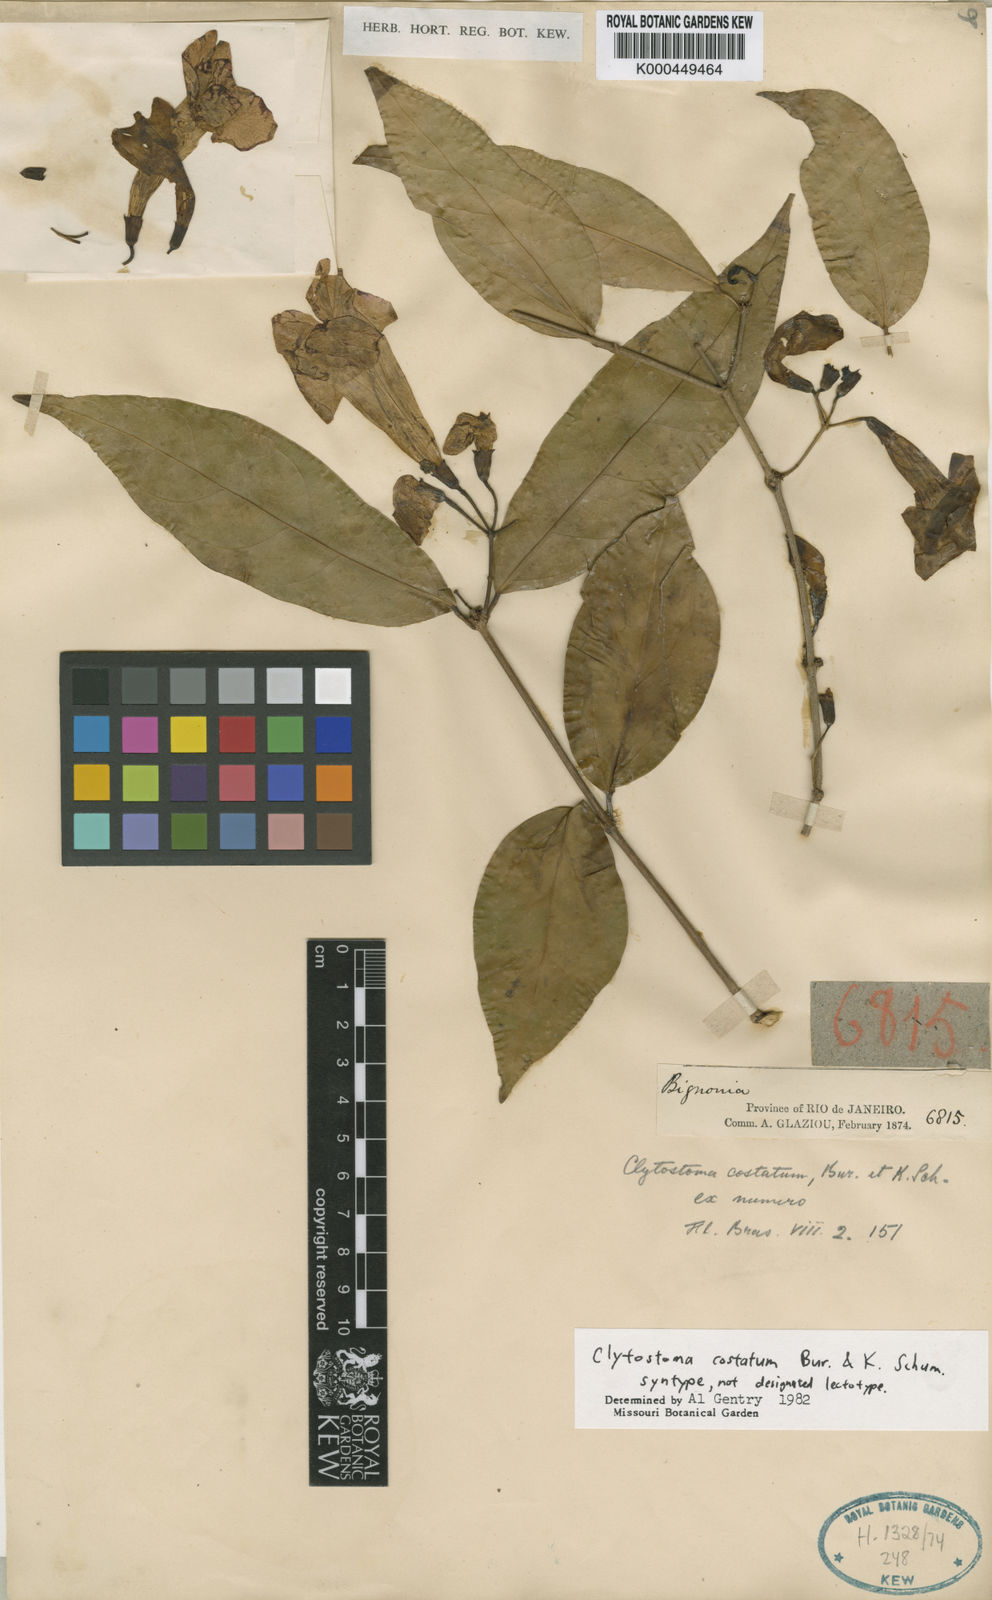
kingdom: Plantae
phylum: Tracheophyta
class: Magnoliopsida
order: Lamiales
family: Bignoniaceae
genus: Bignonia
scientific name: Bignonia costata
